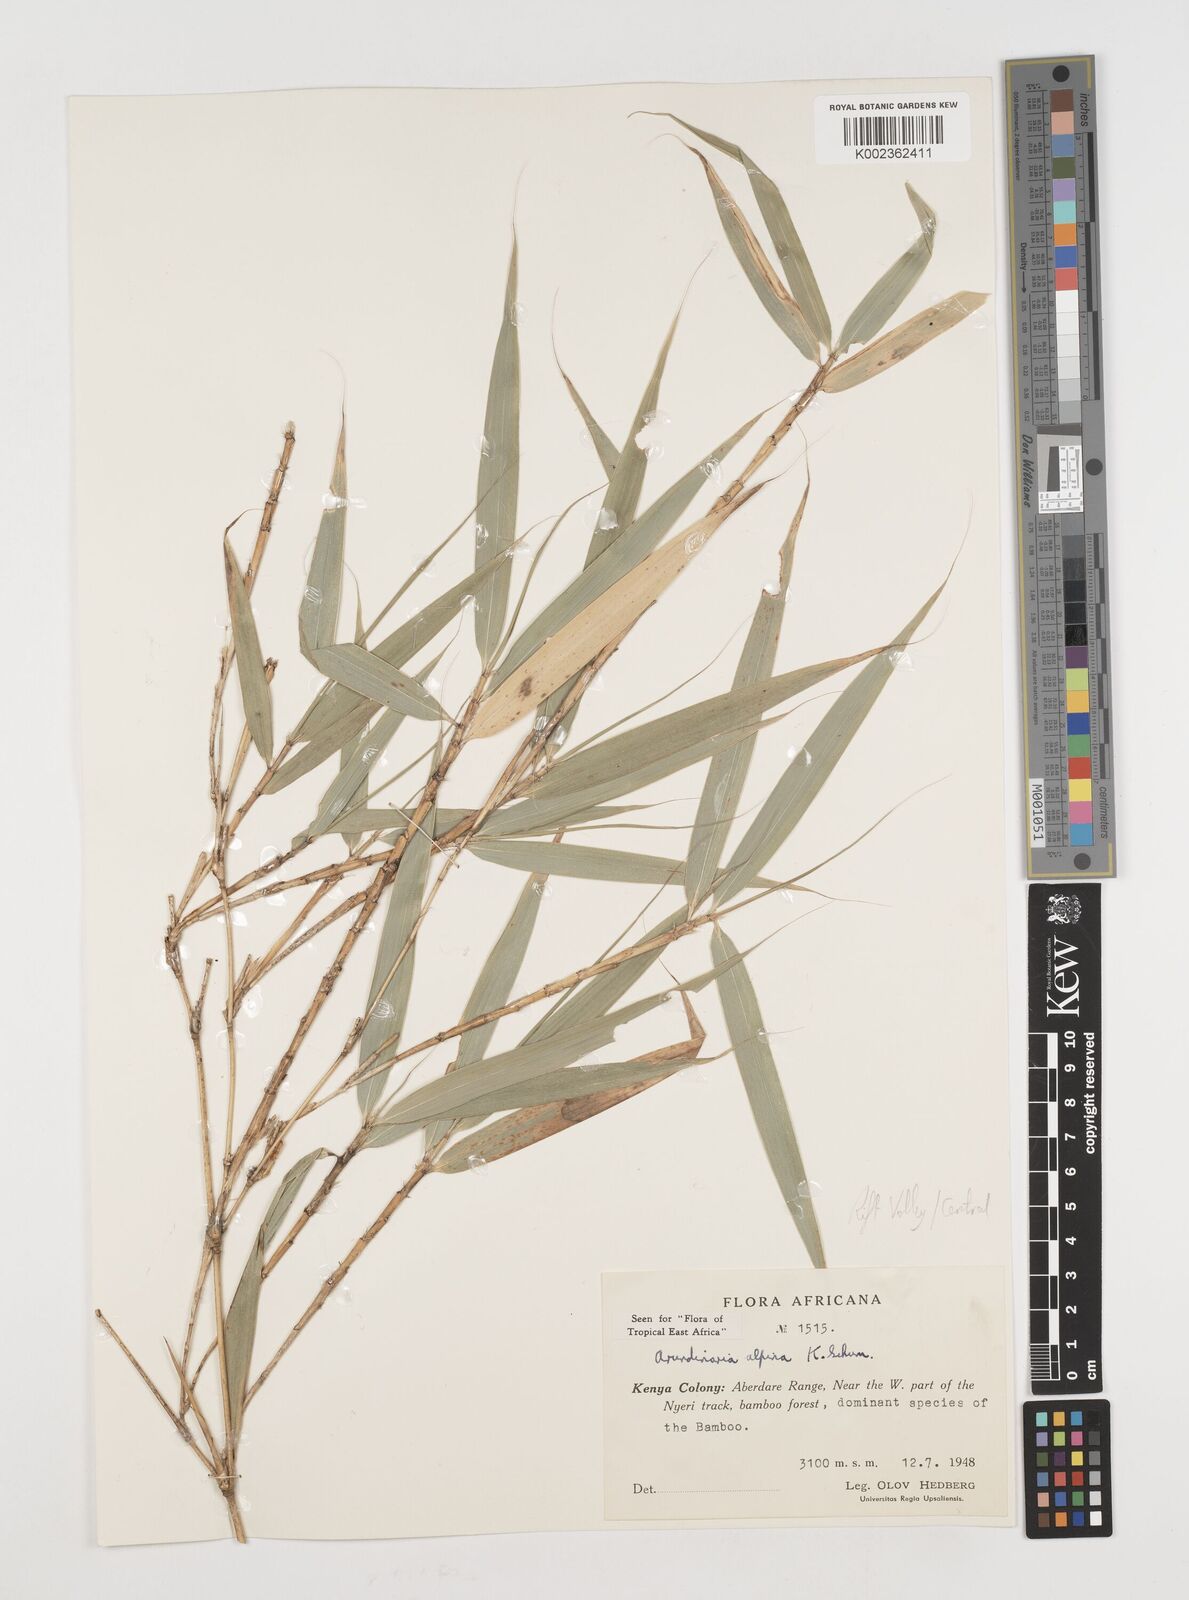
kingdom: Plantae
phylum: Tracheophyta
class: Liliopsida
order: Poales
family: Poaceae
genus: Oldeania
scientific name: Oldeania alpina
